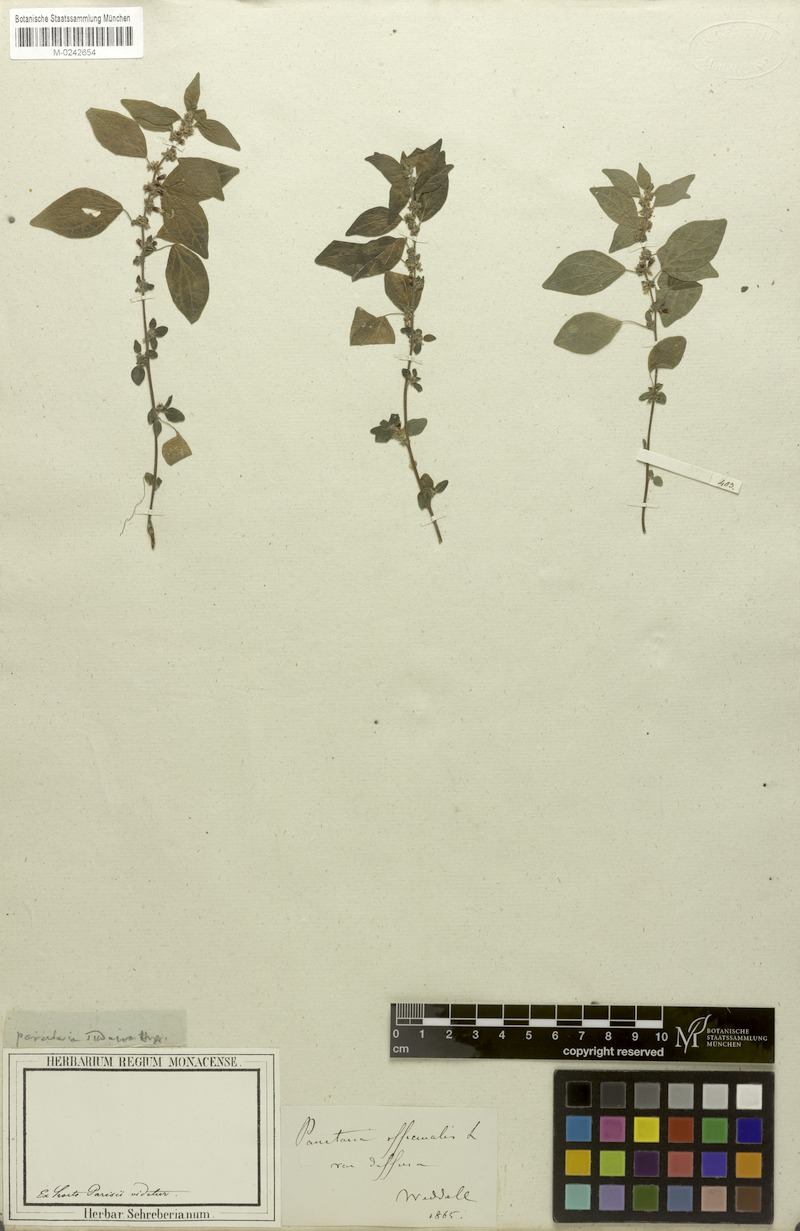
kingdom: Plantae
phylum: Tracheophyta
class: Magnoliopsida
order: Rosales
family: Urticaceae
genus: Parietaria
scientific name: Parietaria
